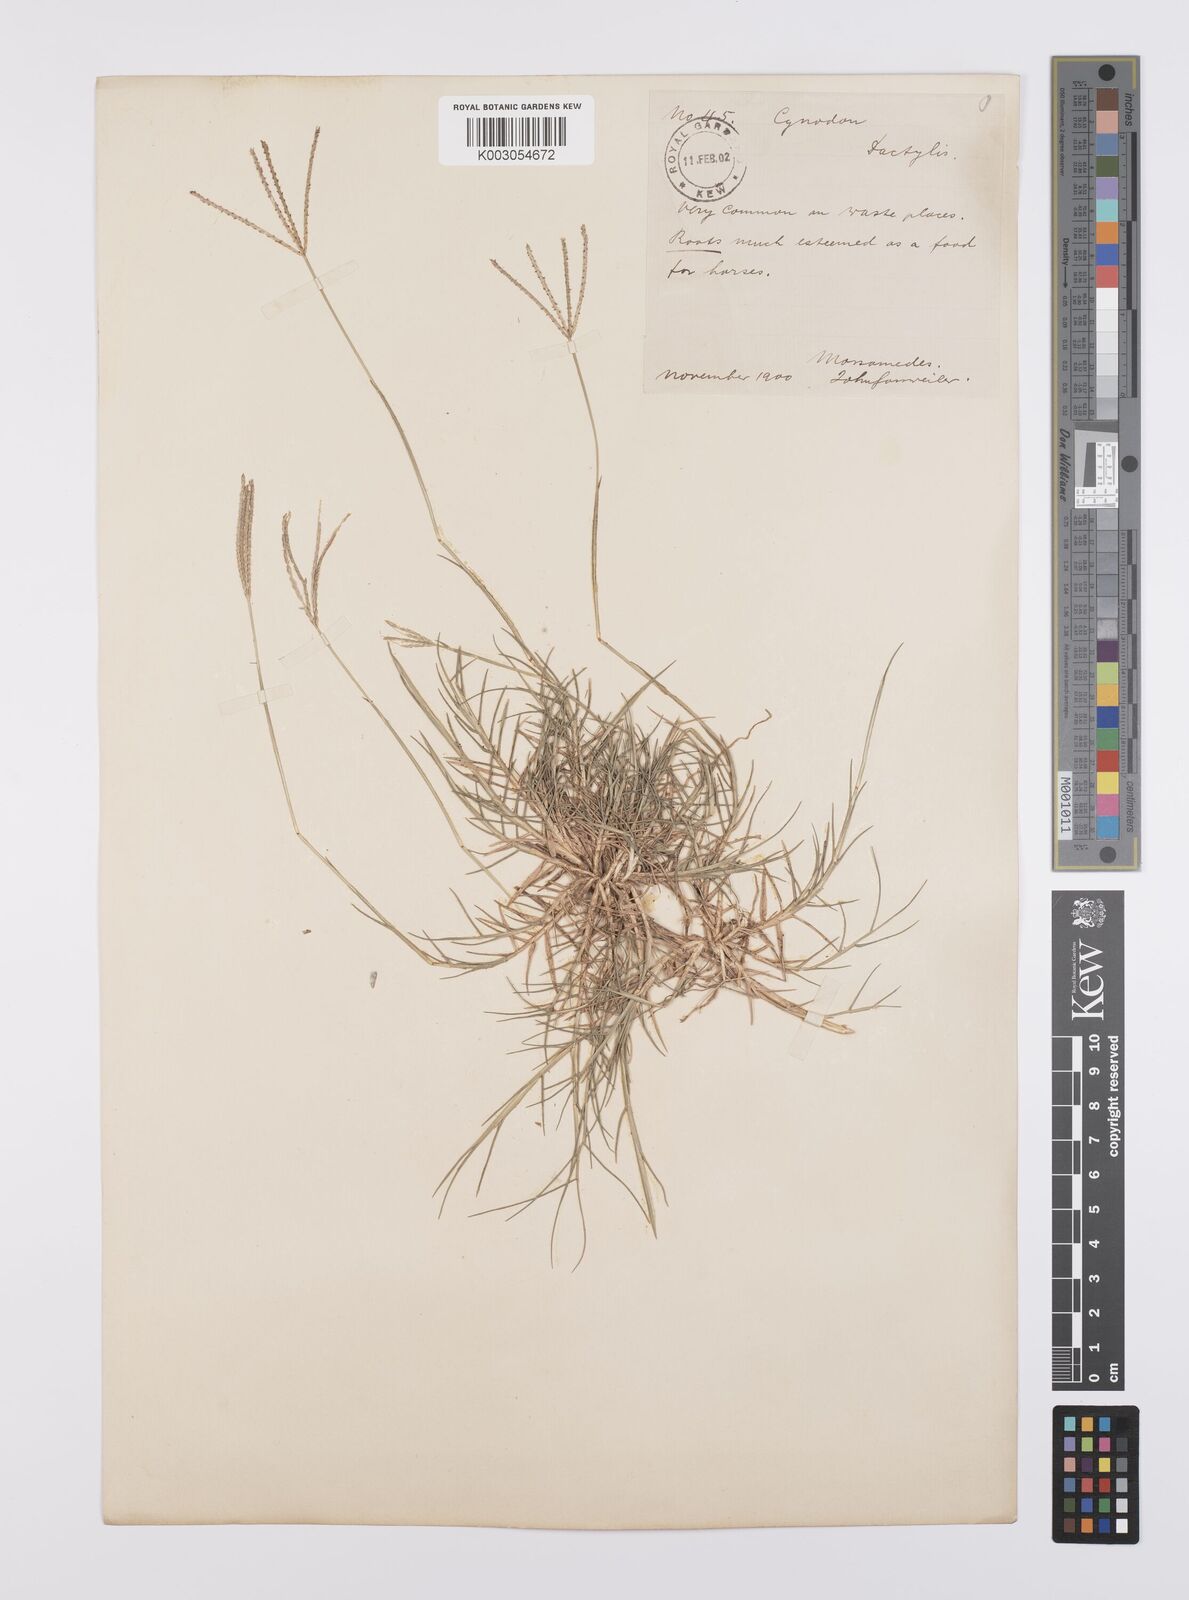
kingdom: Plantae
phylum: Tracheophyta
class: Liliopsida
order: Poales
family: Poaceae
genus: Cynodon
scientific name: Cynodon dactylon
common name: Bermuda grass
